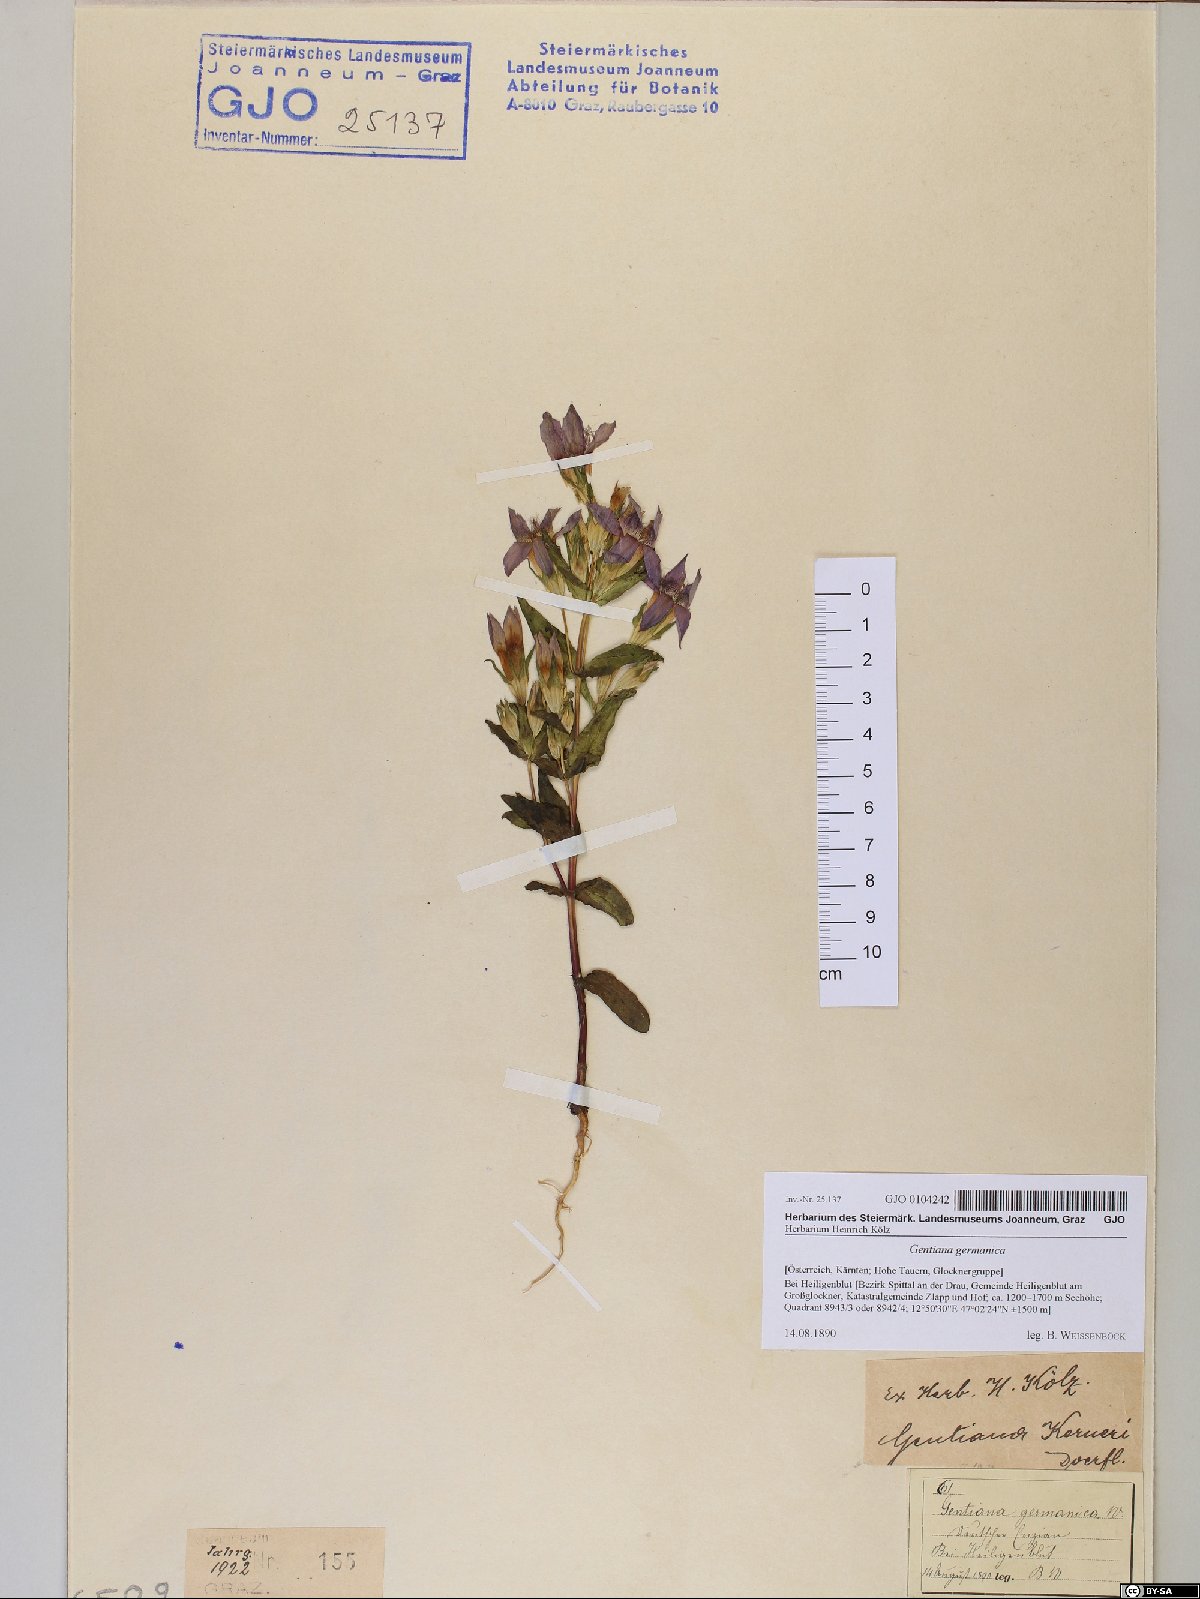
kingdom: Plantae
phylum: Tracheophyta
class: Magnoliopsida
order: Gentianales
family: Gentianaceae
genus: Gentianella
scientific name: Gentianella germanica
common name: Chiltern-gentian
